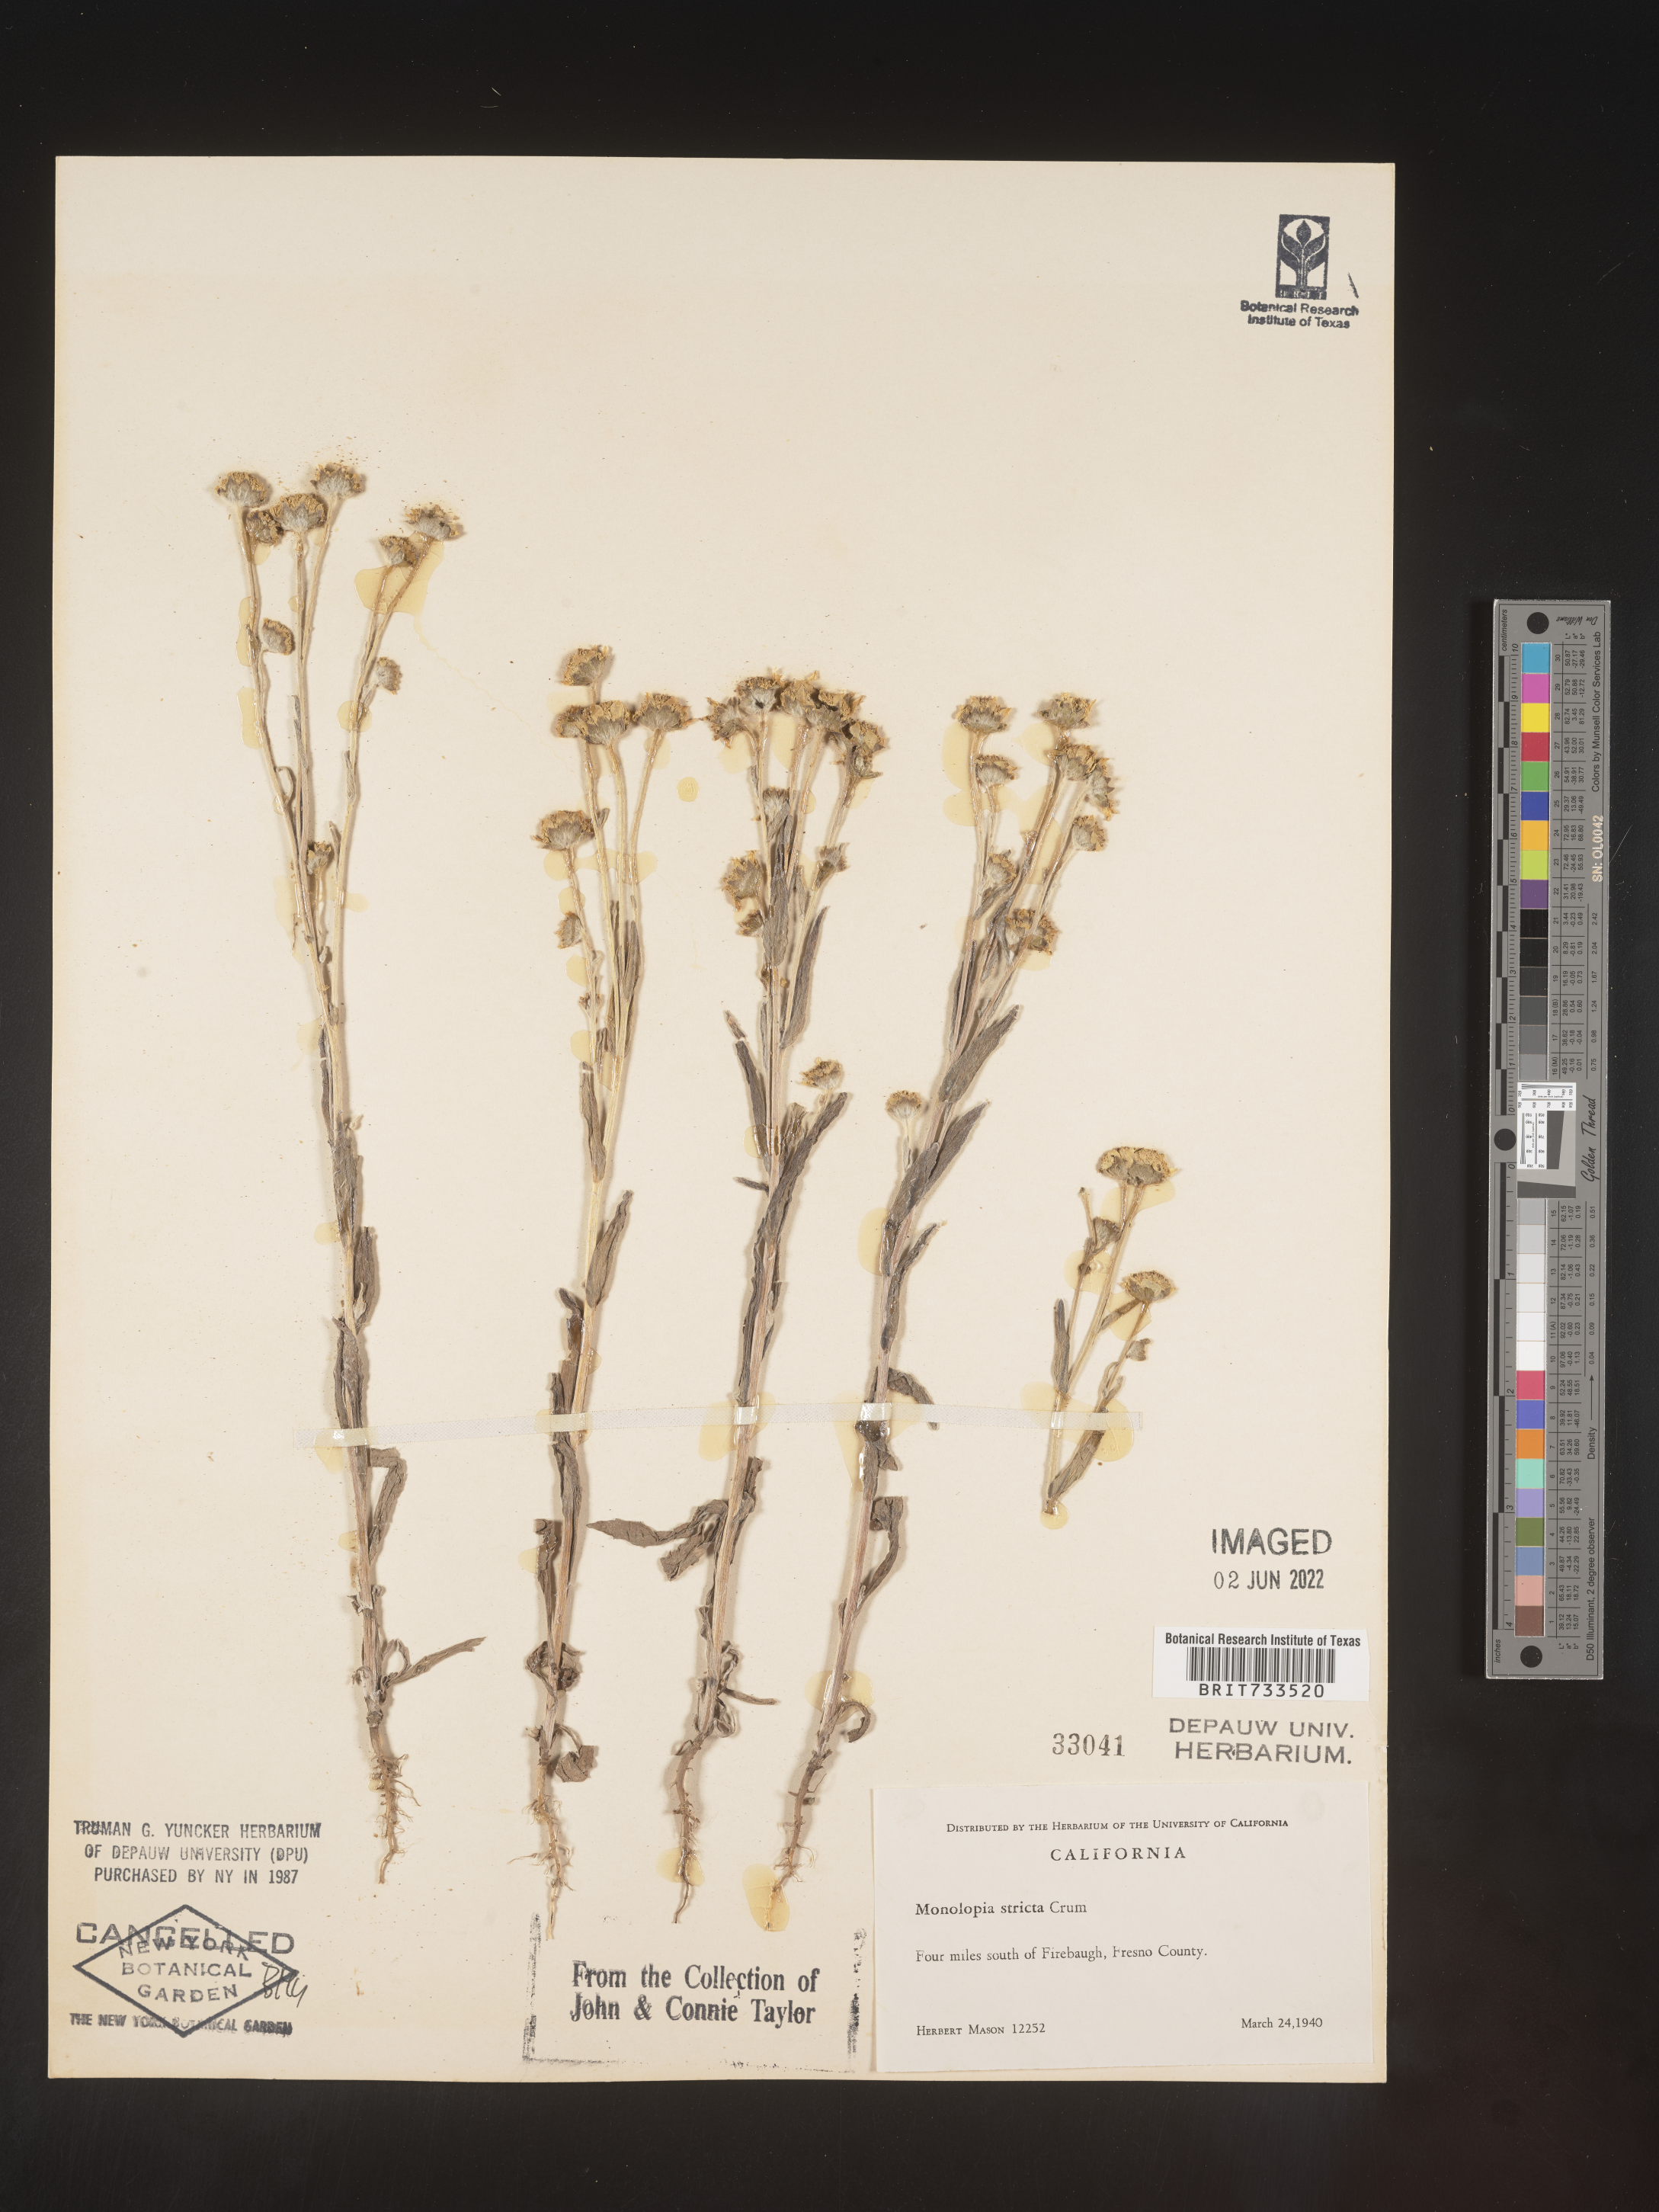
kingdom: Plantae
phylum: Tracheophyta
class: Magnoliopsida
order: Asterales
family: Asteraceae
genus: Monolopia
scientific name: Monolopia stricta
